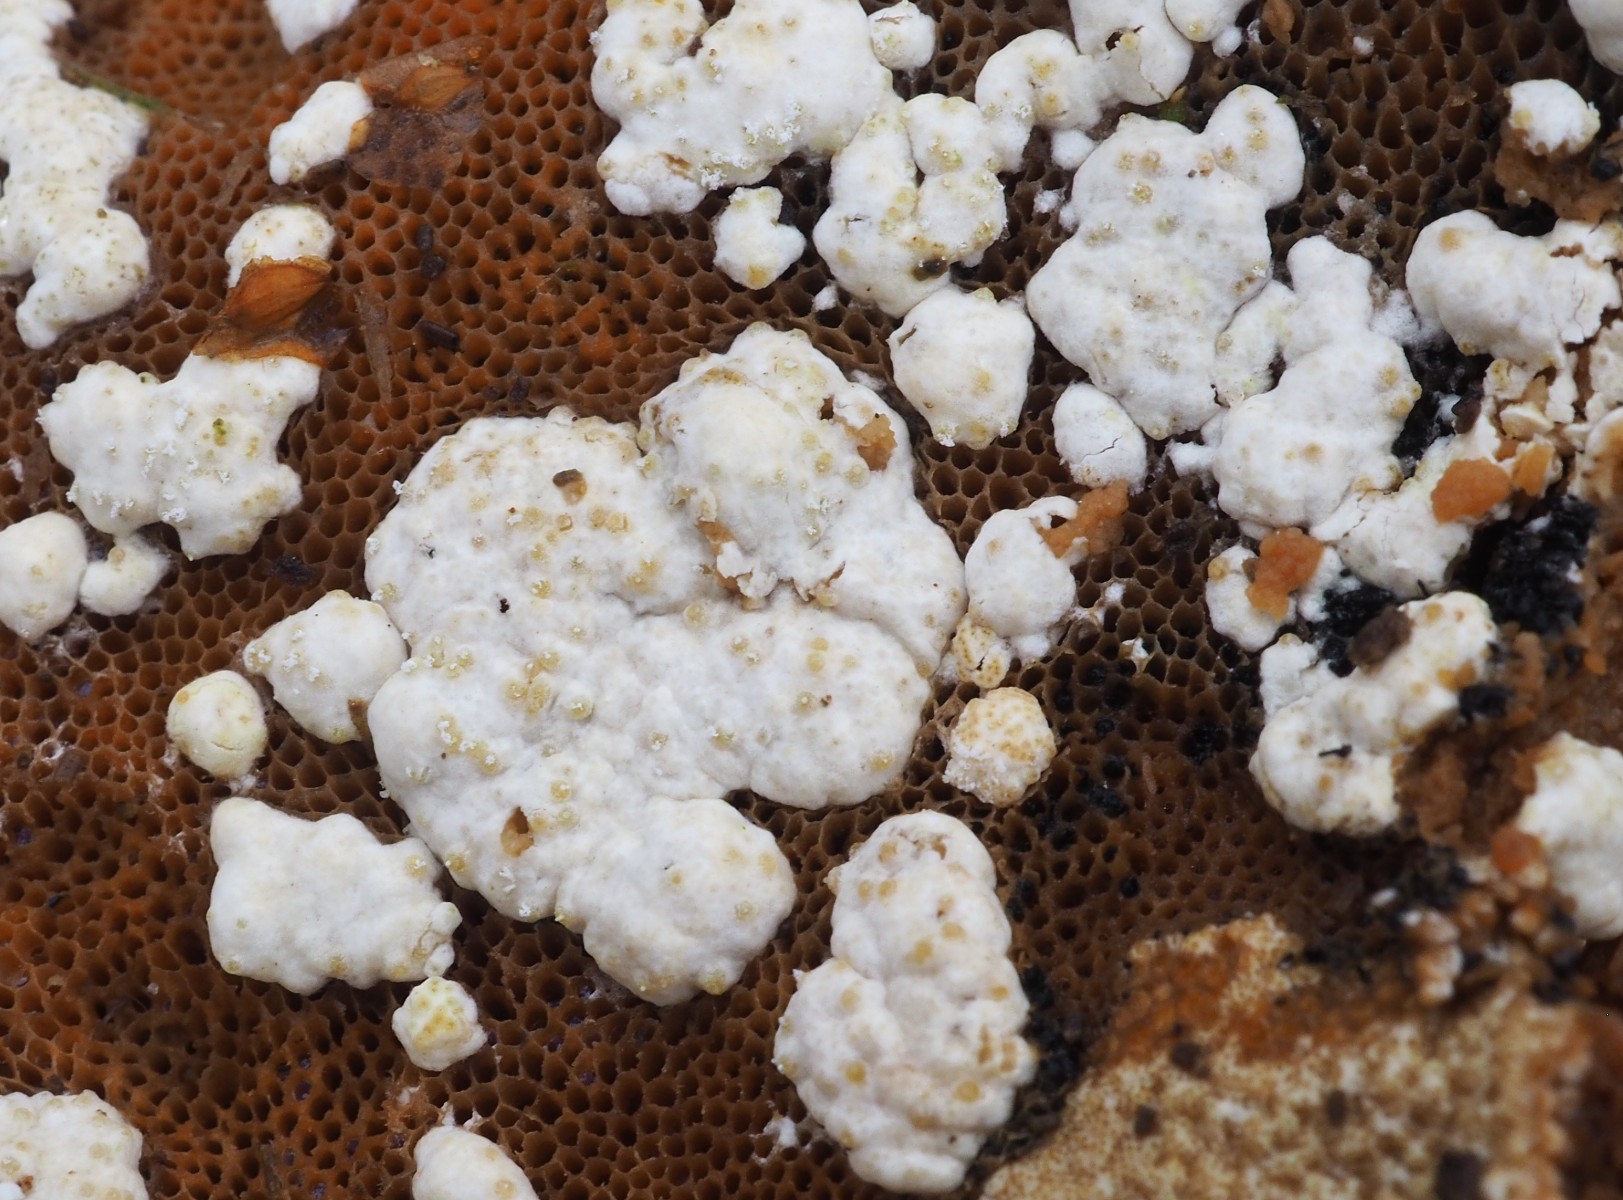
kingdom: Fungi
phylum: Ascomycota
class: Sordariomycetes
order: Hypocreales
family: Hypocreaceae
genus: Trichoderma
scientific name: Trichoderma pulvinatum
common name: snyltende kødkerne
